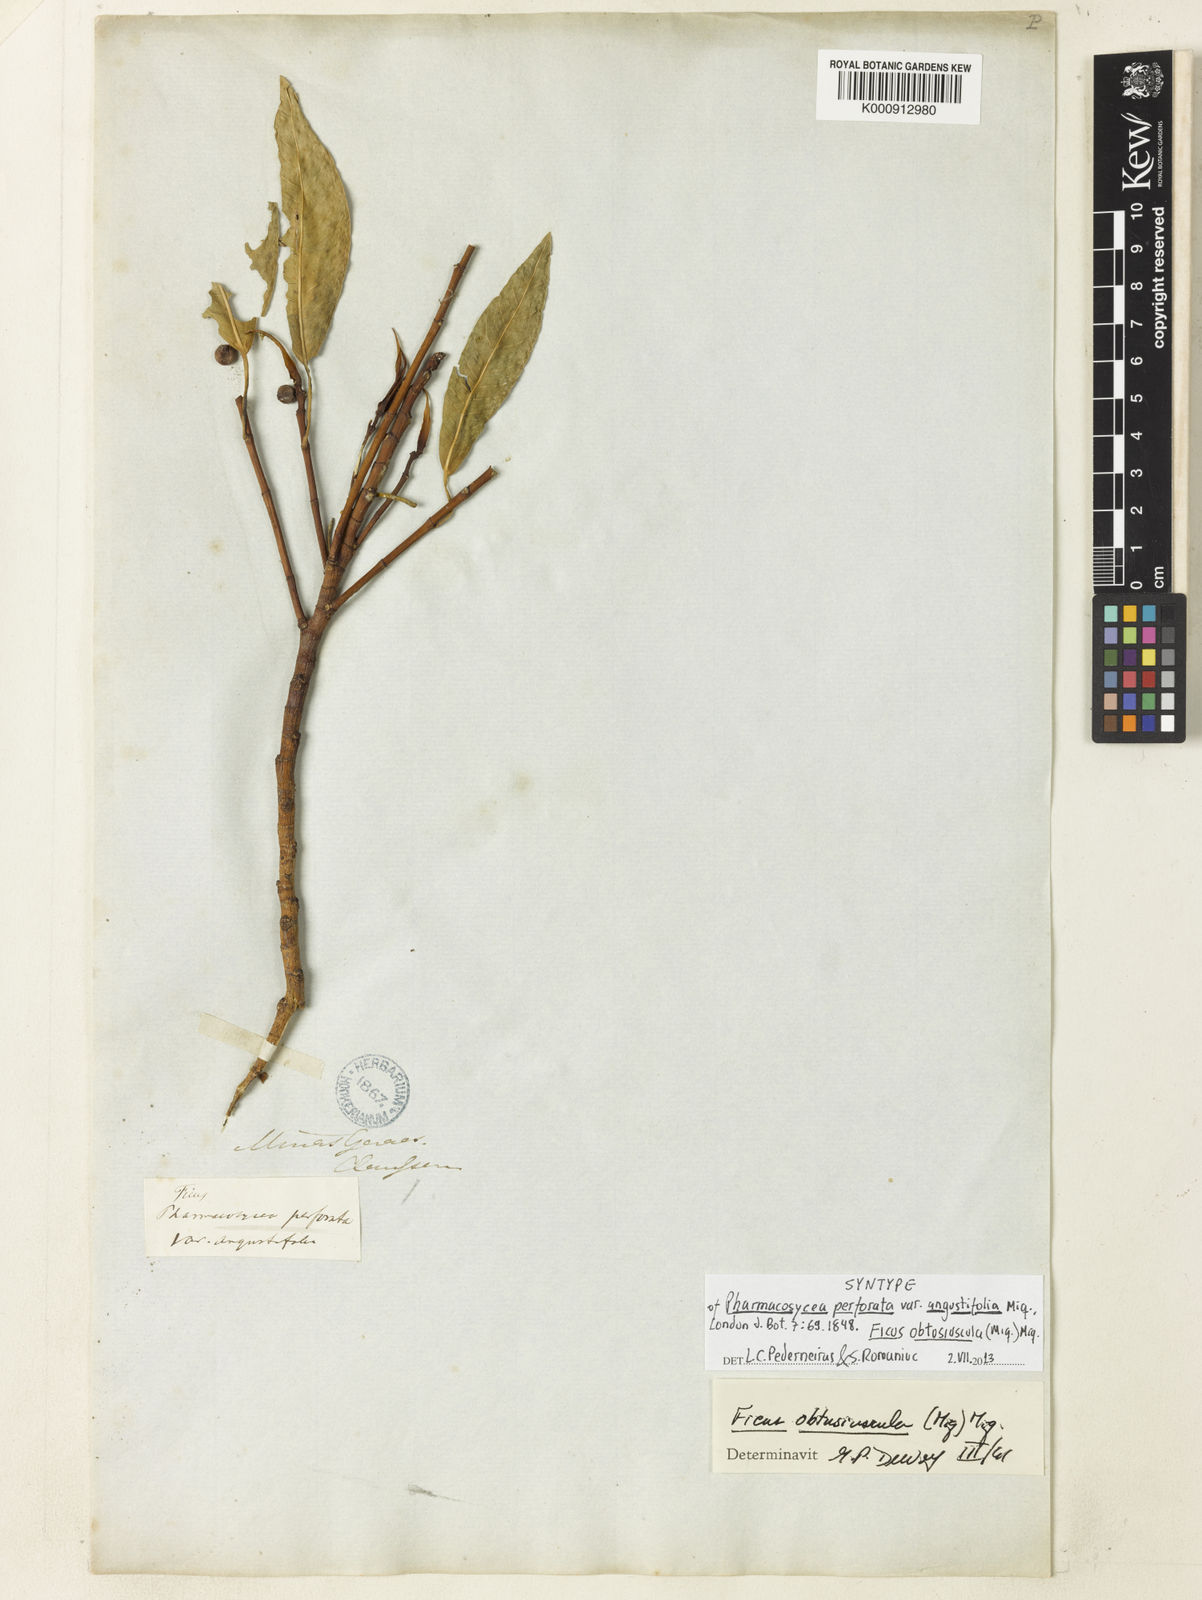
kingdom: Plantae
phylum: Tracheophyta
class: Magnoliopsida
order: Rosales
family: Moraceae
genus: Ficus
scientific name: Ficus obtusiuscula
